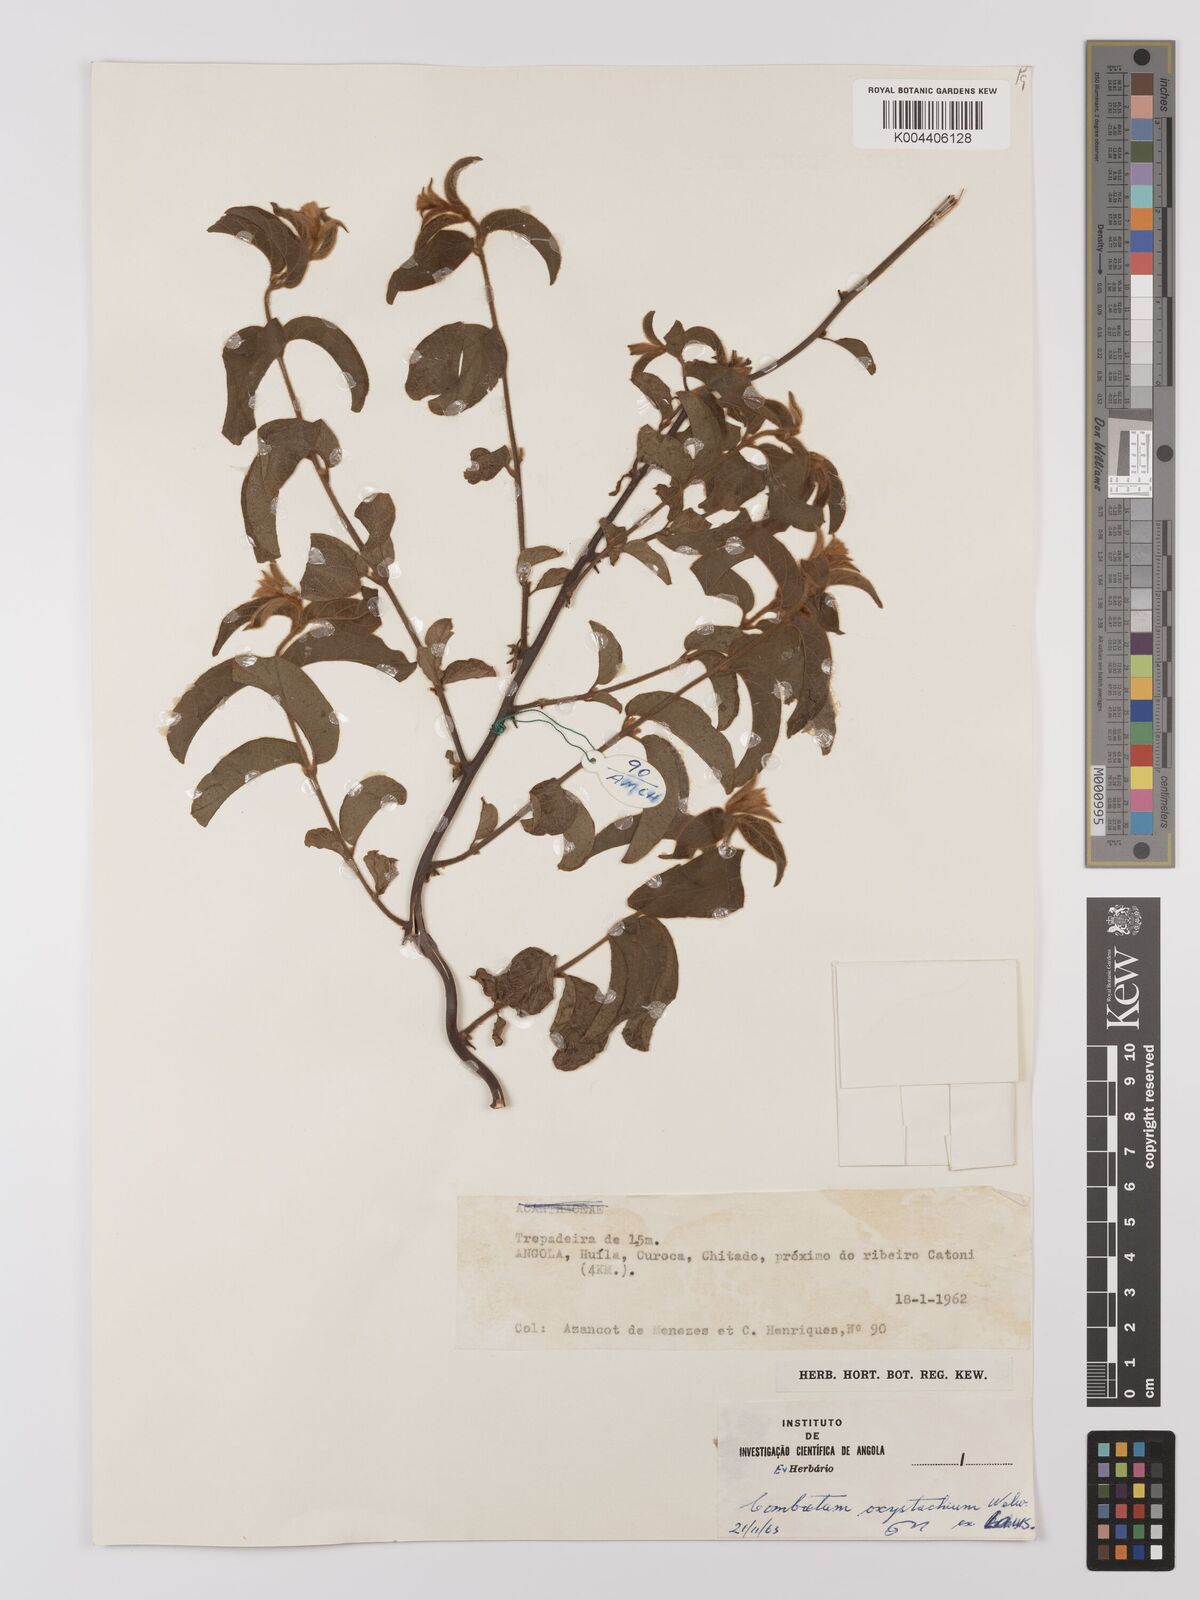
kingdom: Plantae
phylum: Tracheophyta
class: Magnoliopsida
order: Myrtales
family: Combretaceae
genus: Combretum
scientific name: Combretum oxystachyum
